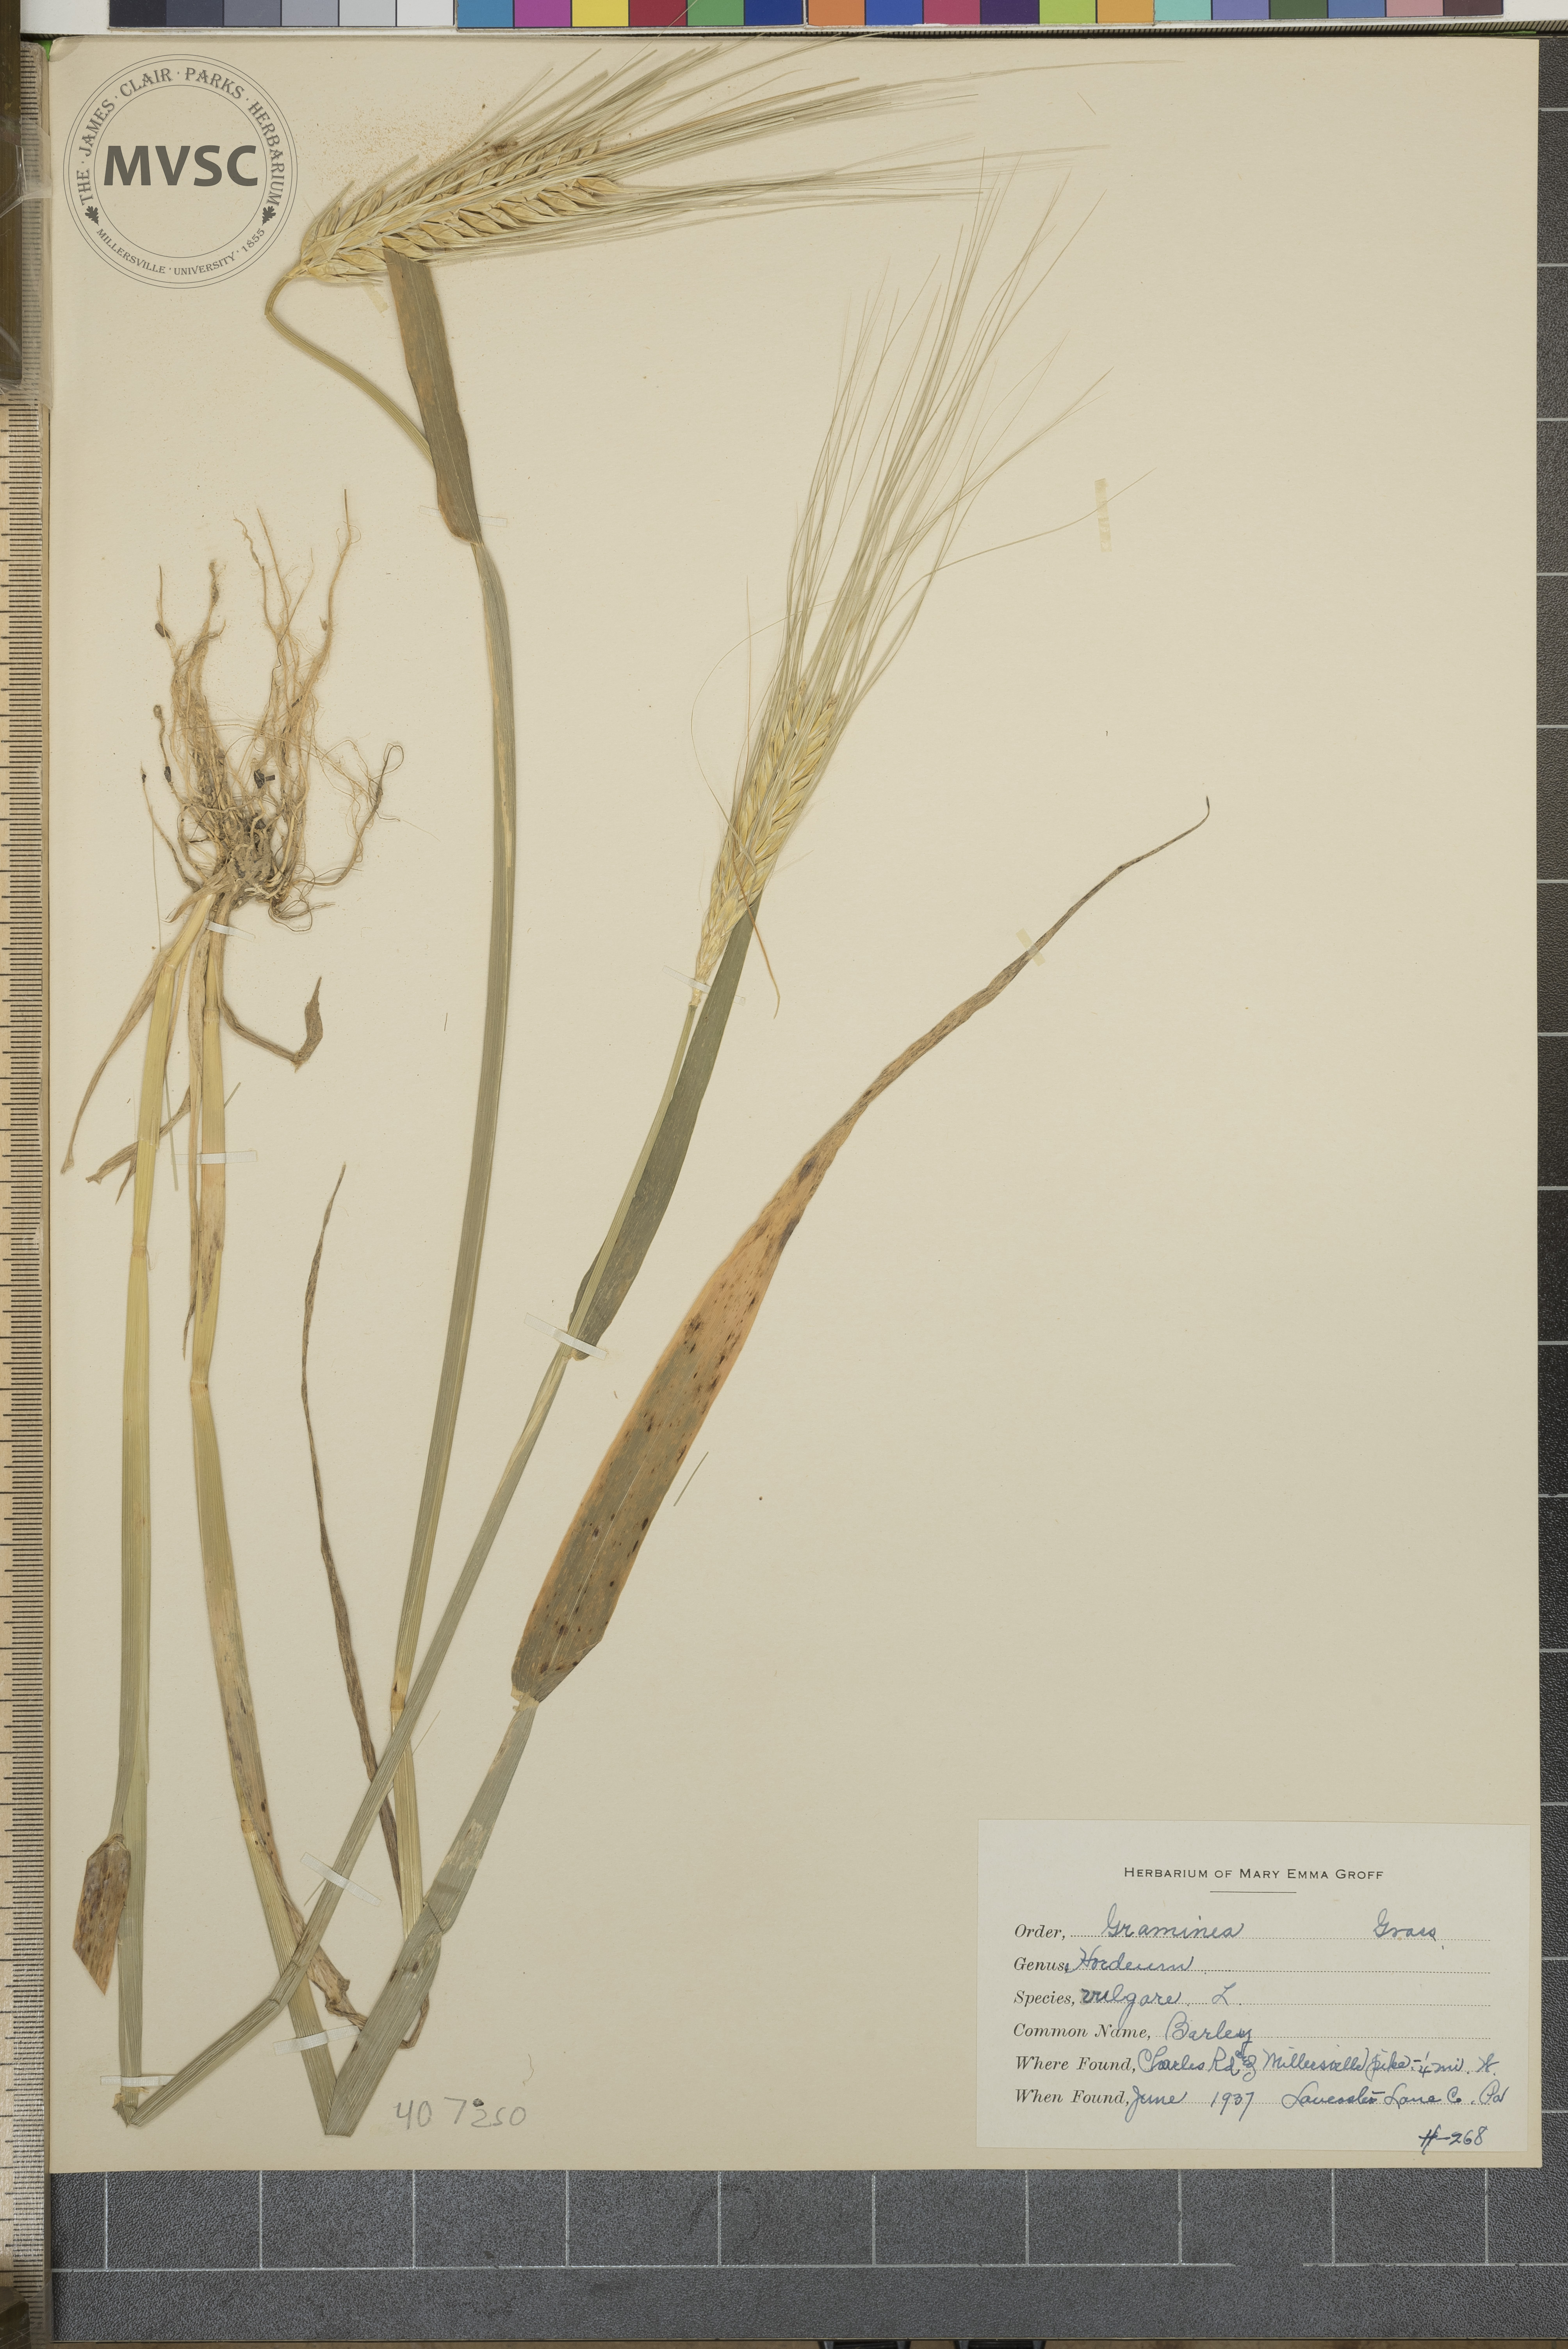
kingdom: Plantae
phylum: Tracheophyta
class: Liliopsida
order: Poales
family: Poaceae
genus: Hordeum
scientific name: Hordeum vulgare
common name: Common barley
